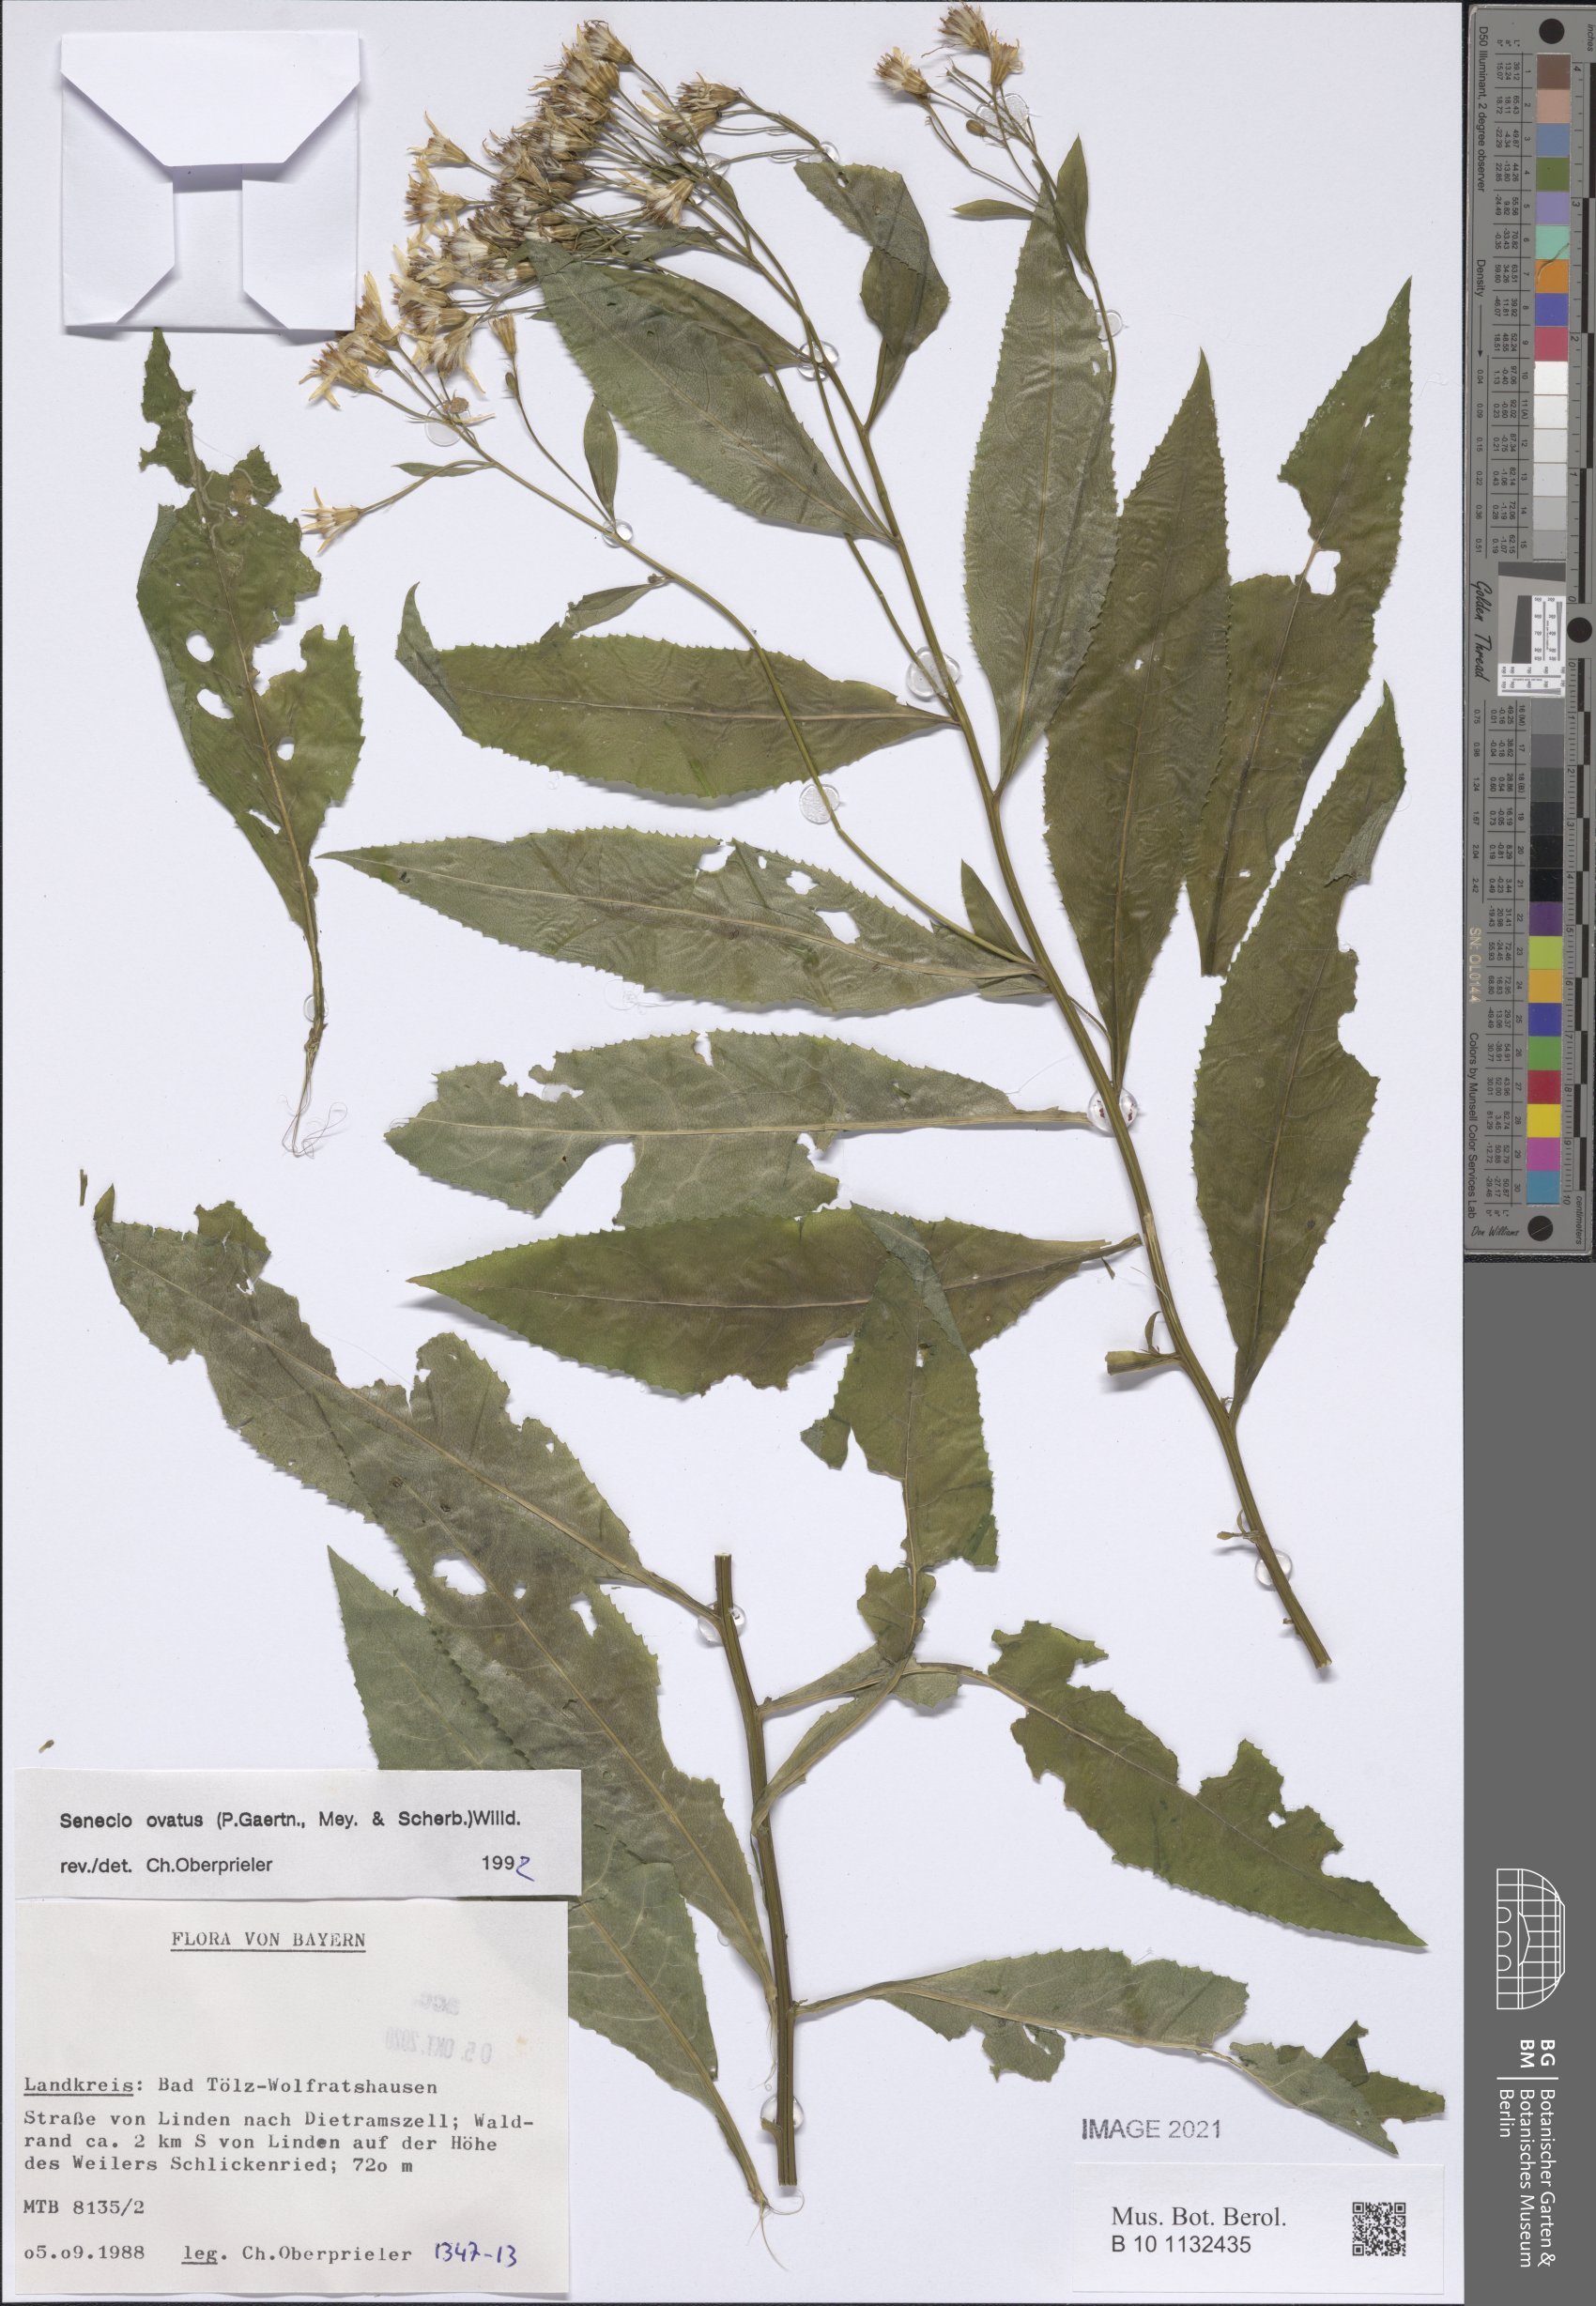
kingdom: Plantae
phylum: Tracheophyta
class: Magnoliopsida
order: Asterales
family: Asteraceae
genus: Senecio
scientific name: Senecio ovatus
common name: Wood ragwort
